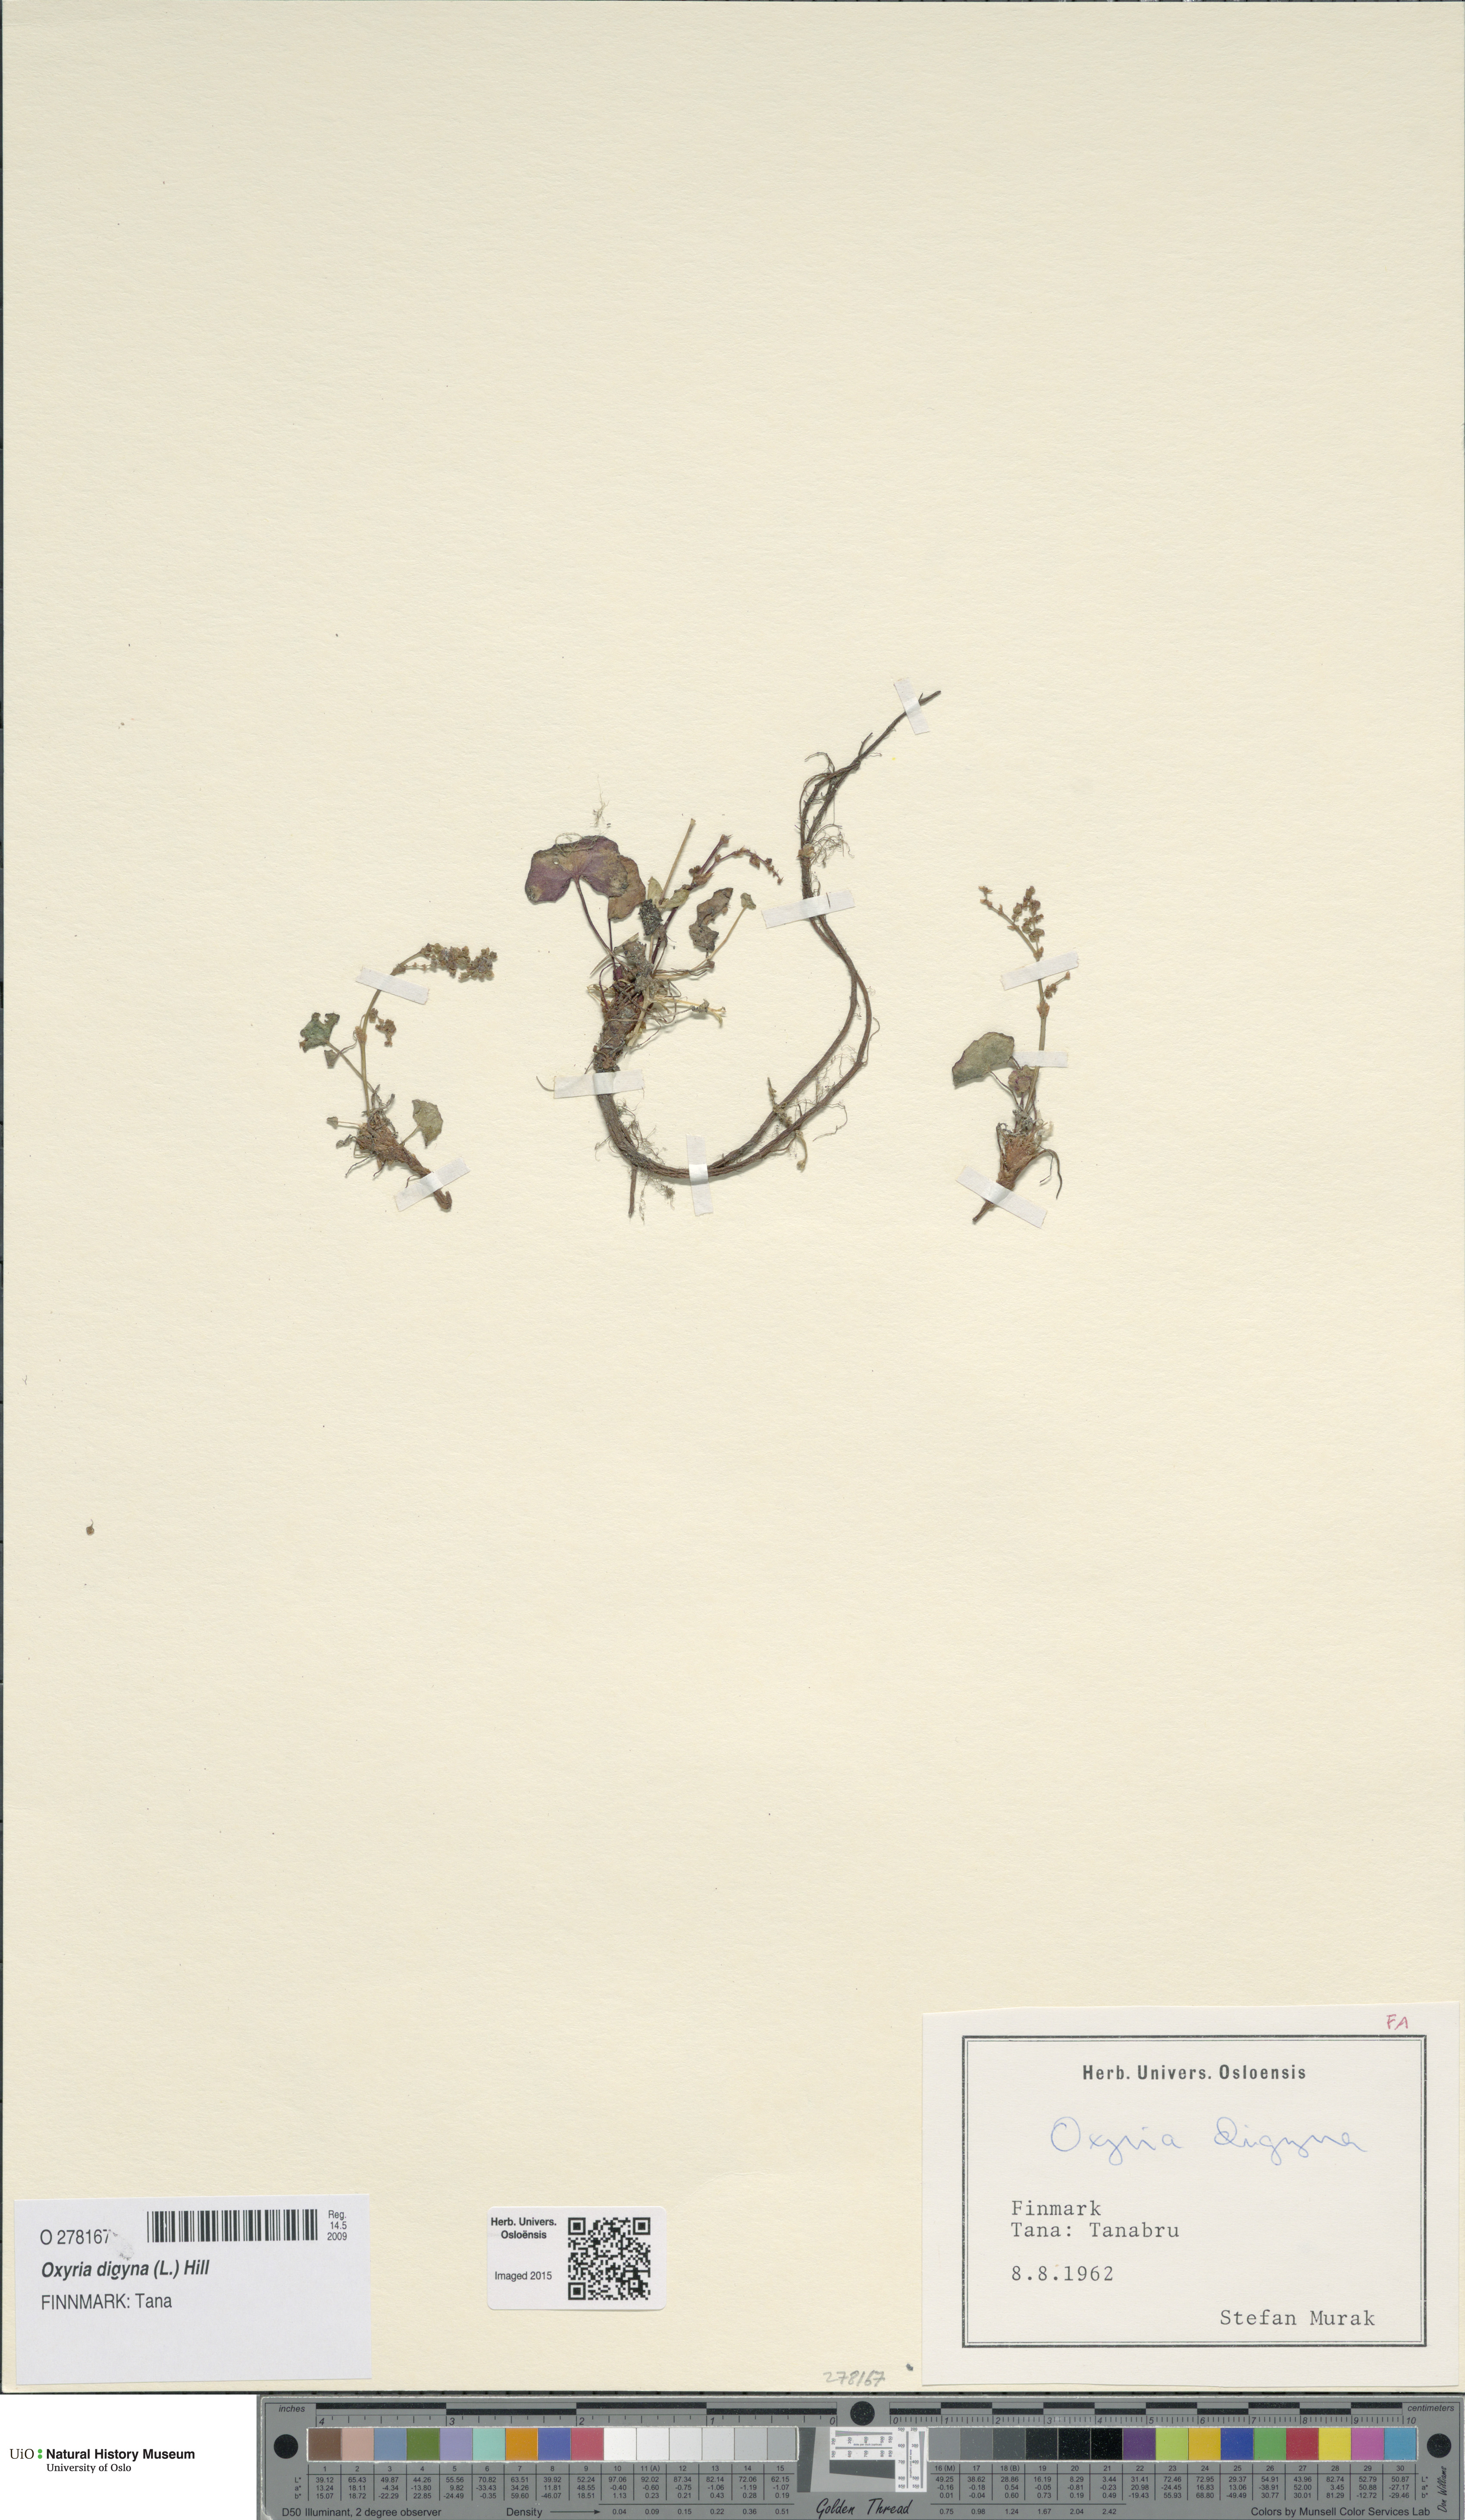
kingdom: Plantae
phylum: Tracheophyta
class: Magnoliopsida
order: Caryophyllales
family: Polygonaceae
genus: Oxyria
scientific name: Oxyria digyna
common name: Alpine mountain-sorrel
